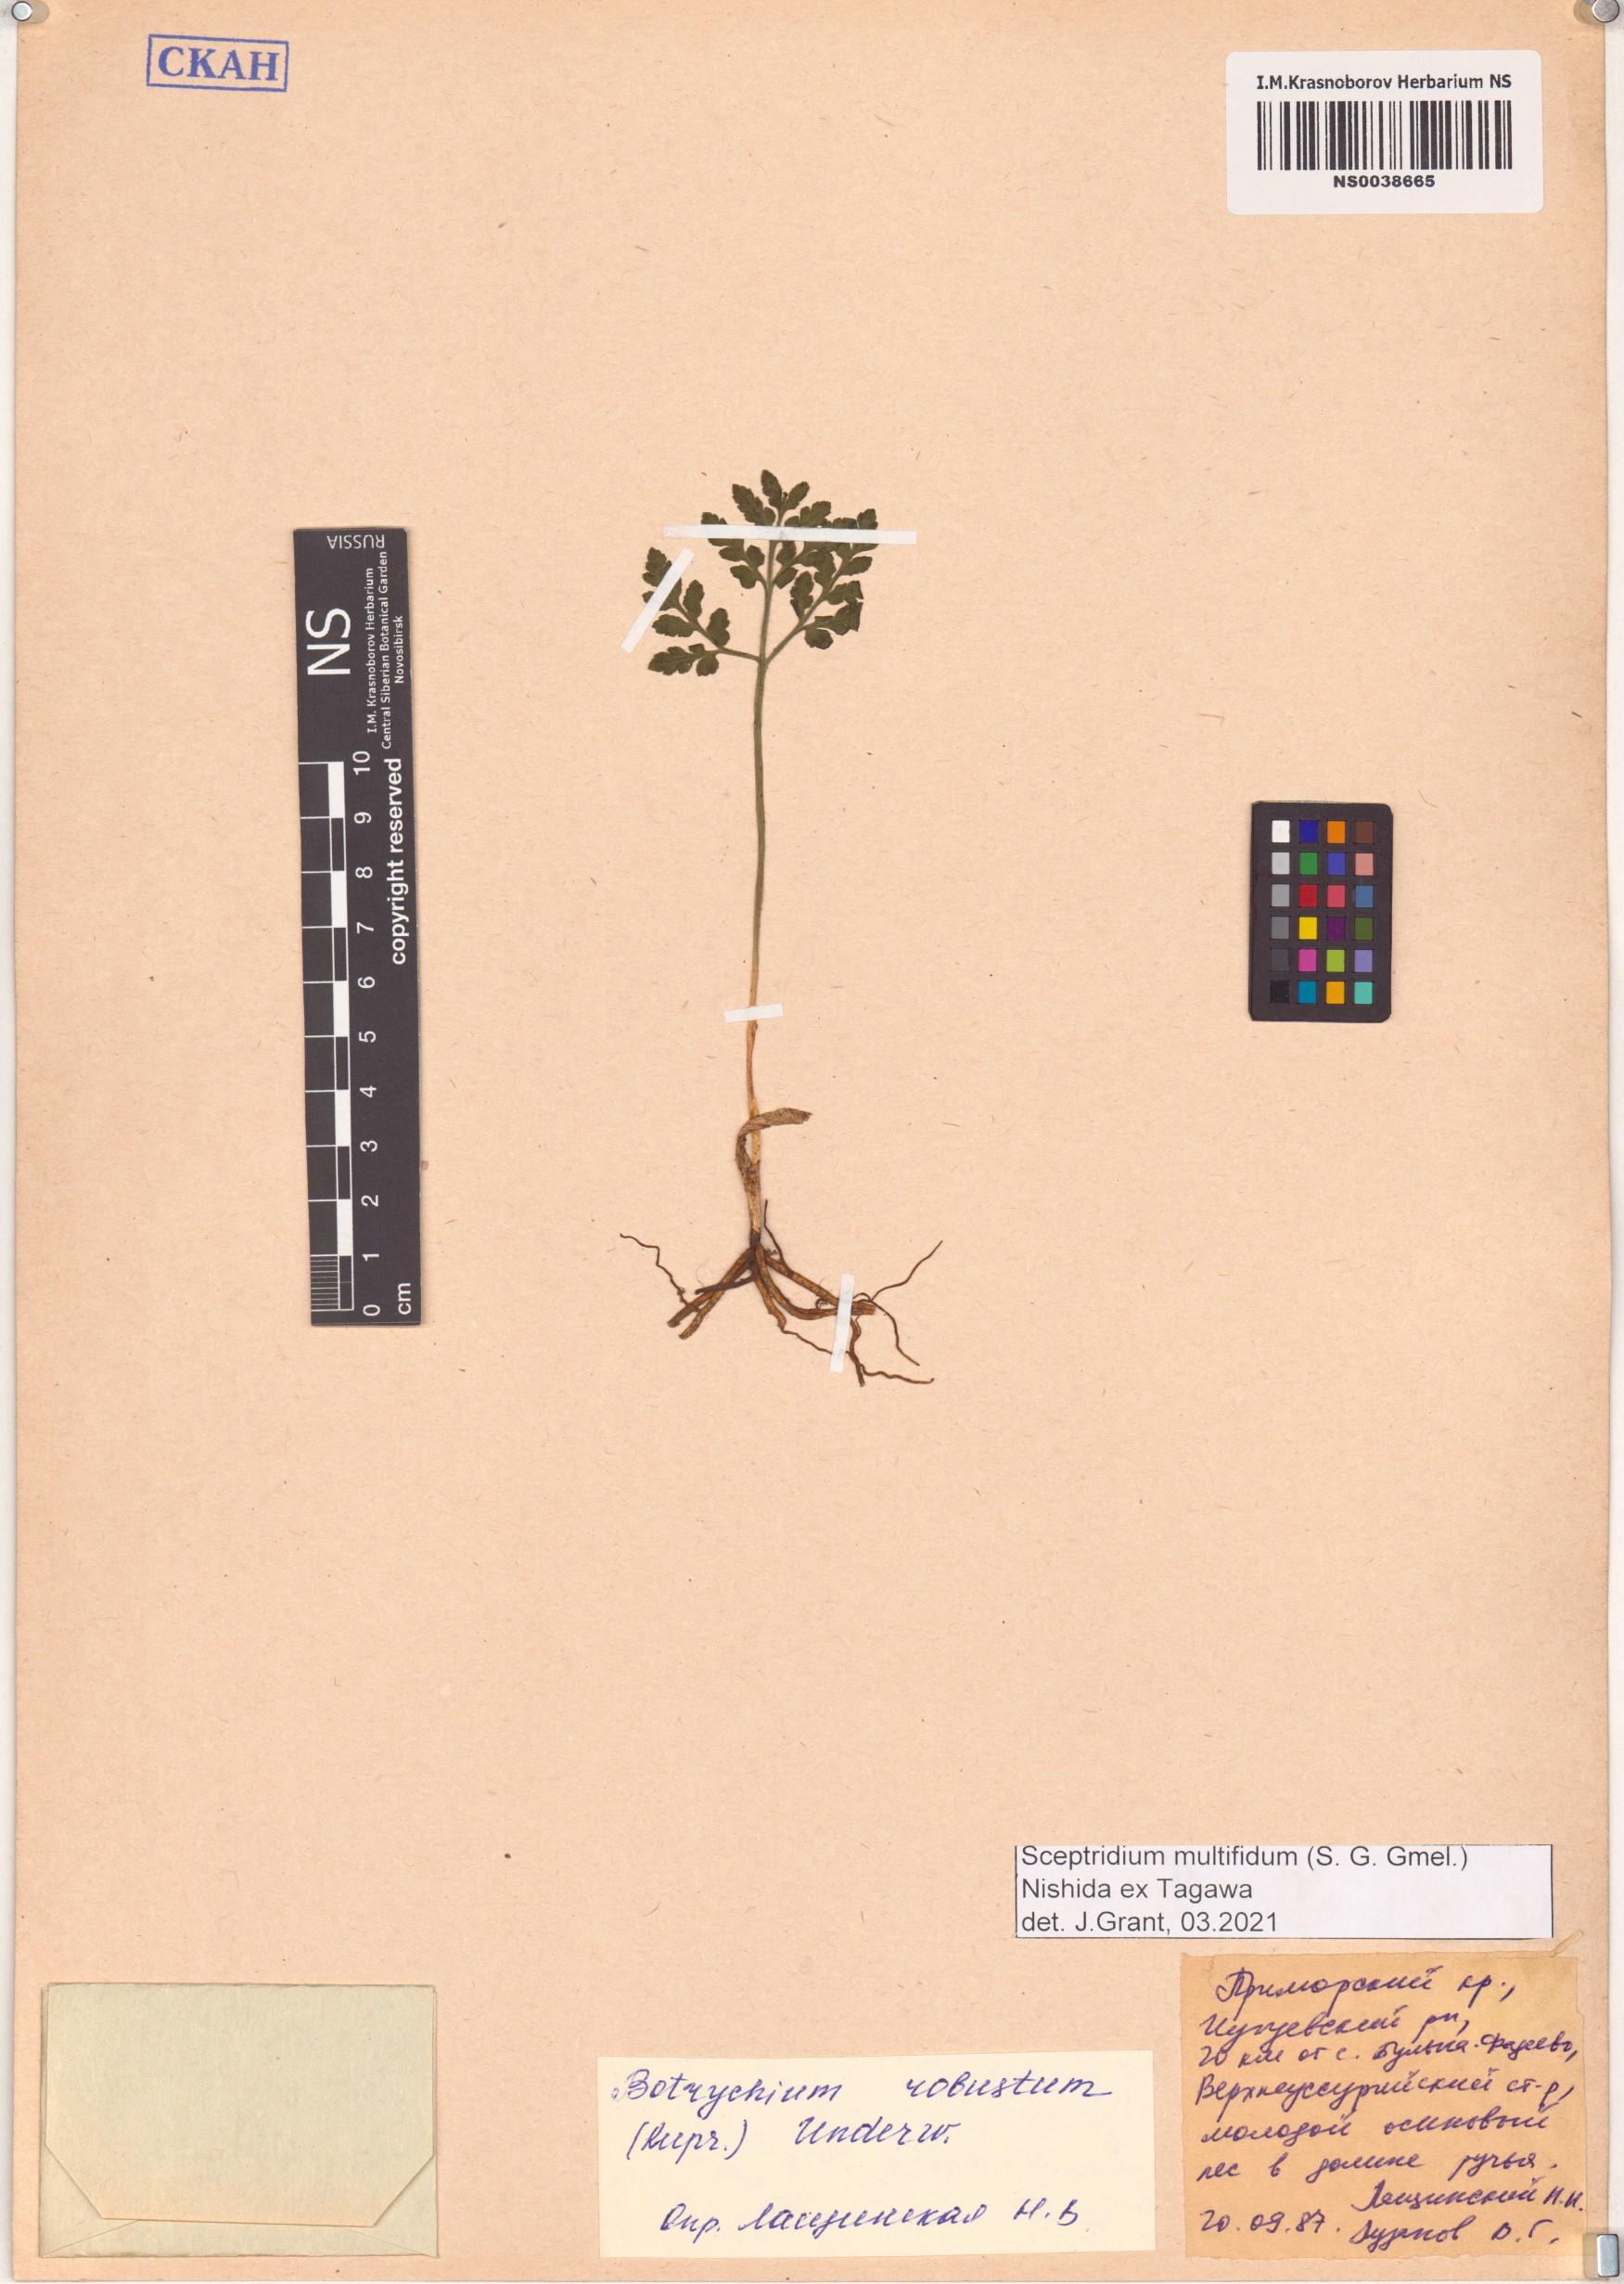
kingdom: Plantae
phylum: Tracheophyta
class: Polypodiopsida
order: Ophioglossales
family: Ophioglossaceae
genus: Sceptridium
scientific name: Sceptridium multifidum
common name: Leathery grape fern
